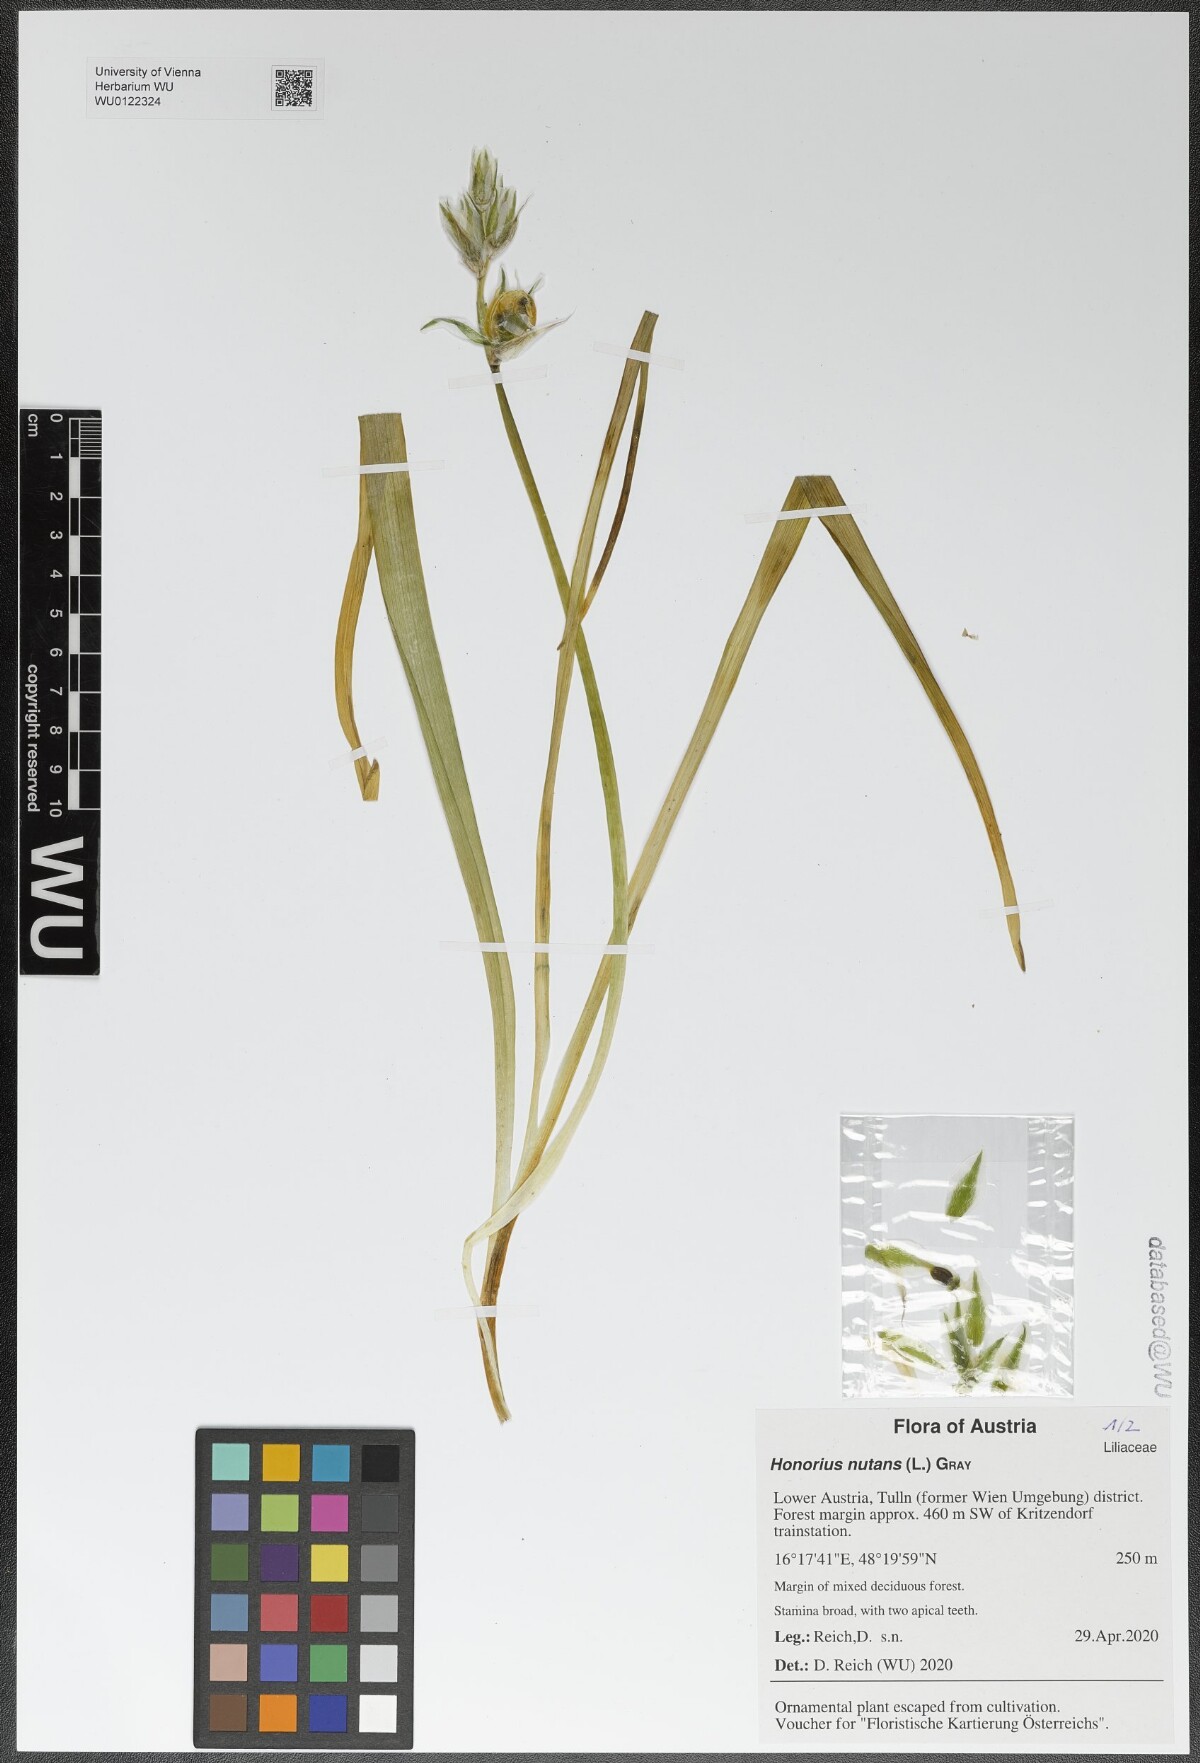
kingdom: Plantae
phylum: Tracheophyta
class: Liliopsida
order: Asparagales
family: Asparagaceae
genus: Ornithogalum
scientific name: Ornithogalum nutans
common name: Drooping star-of-bethlehem
